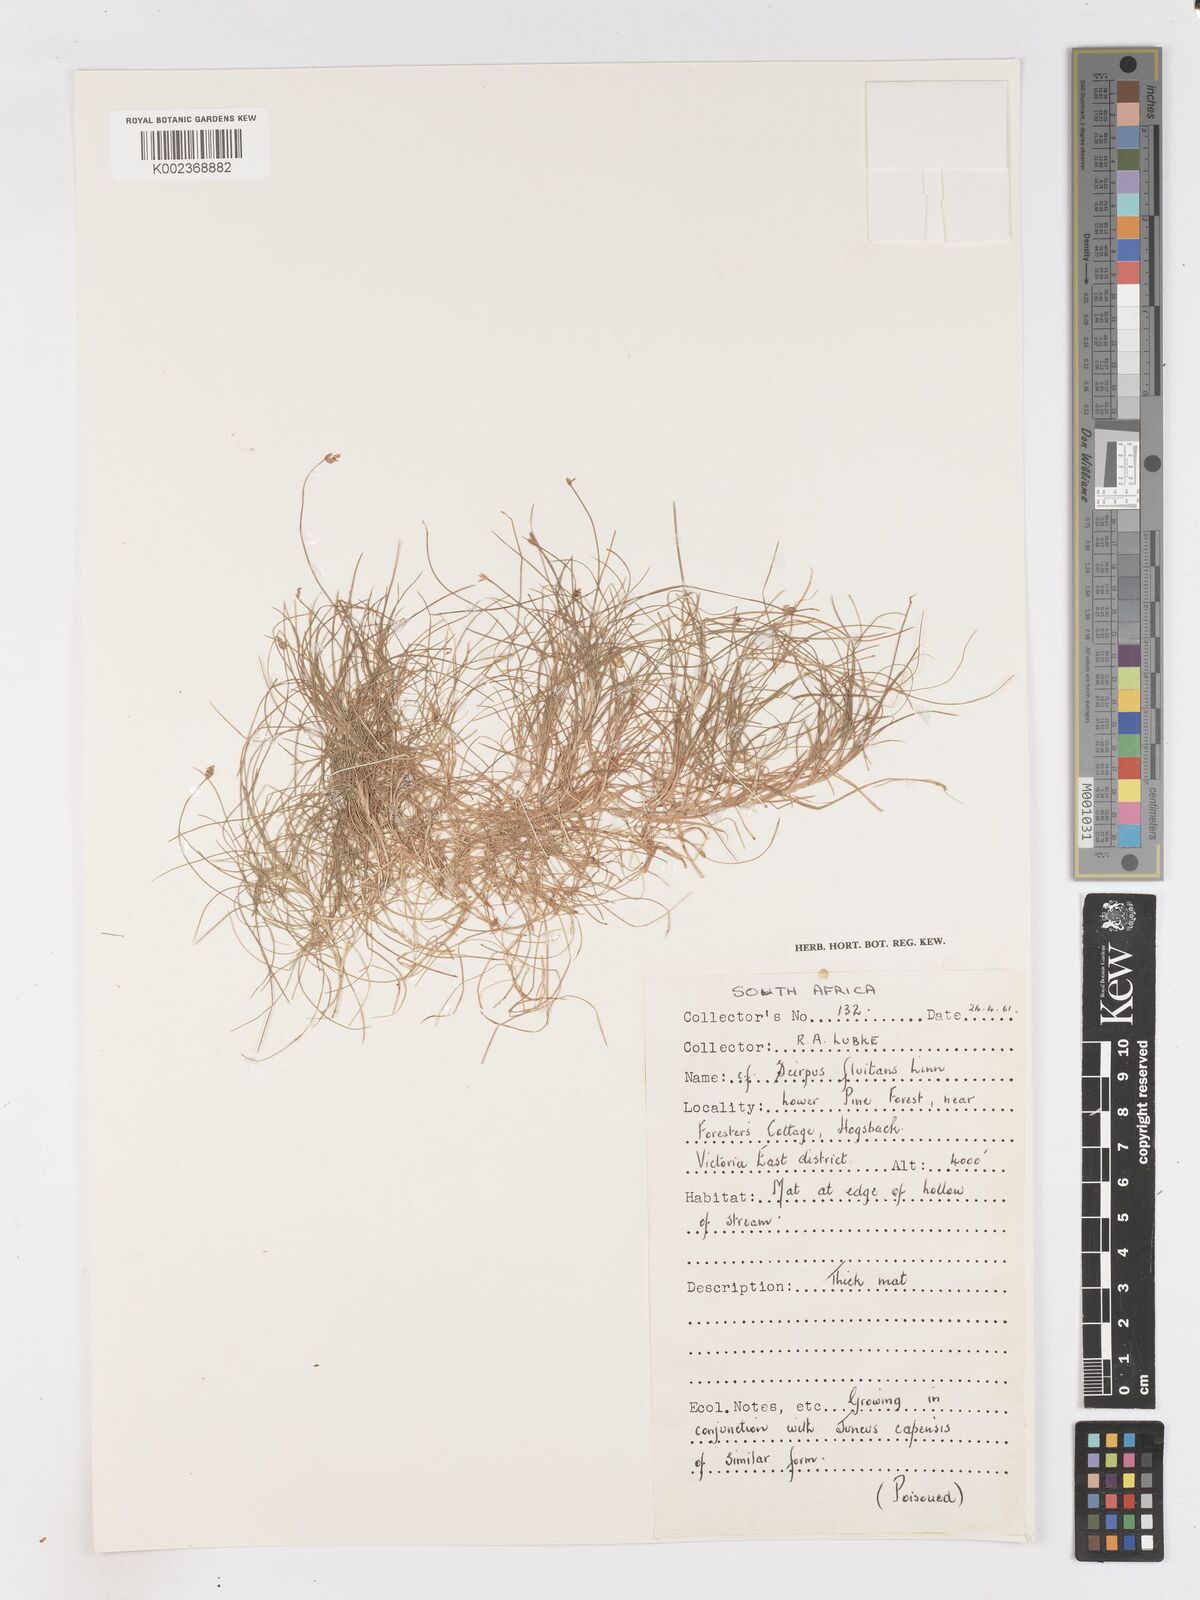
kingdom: Plantae
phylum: Tracheophyta
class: Liliopsida
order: Poales
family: Cyperaceae
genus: Isolepis
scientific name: Isolepis
